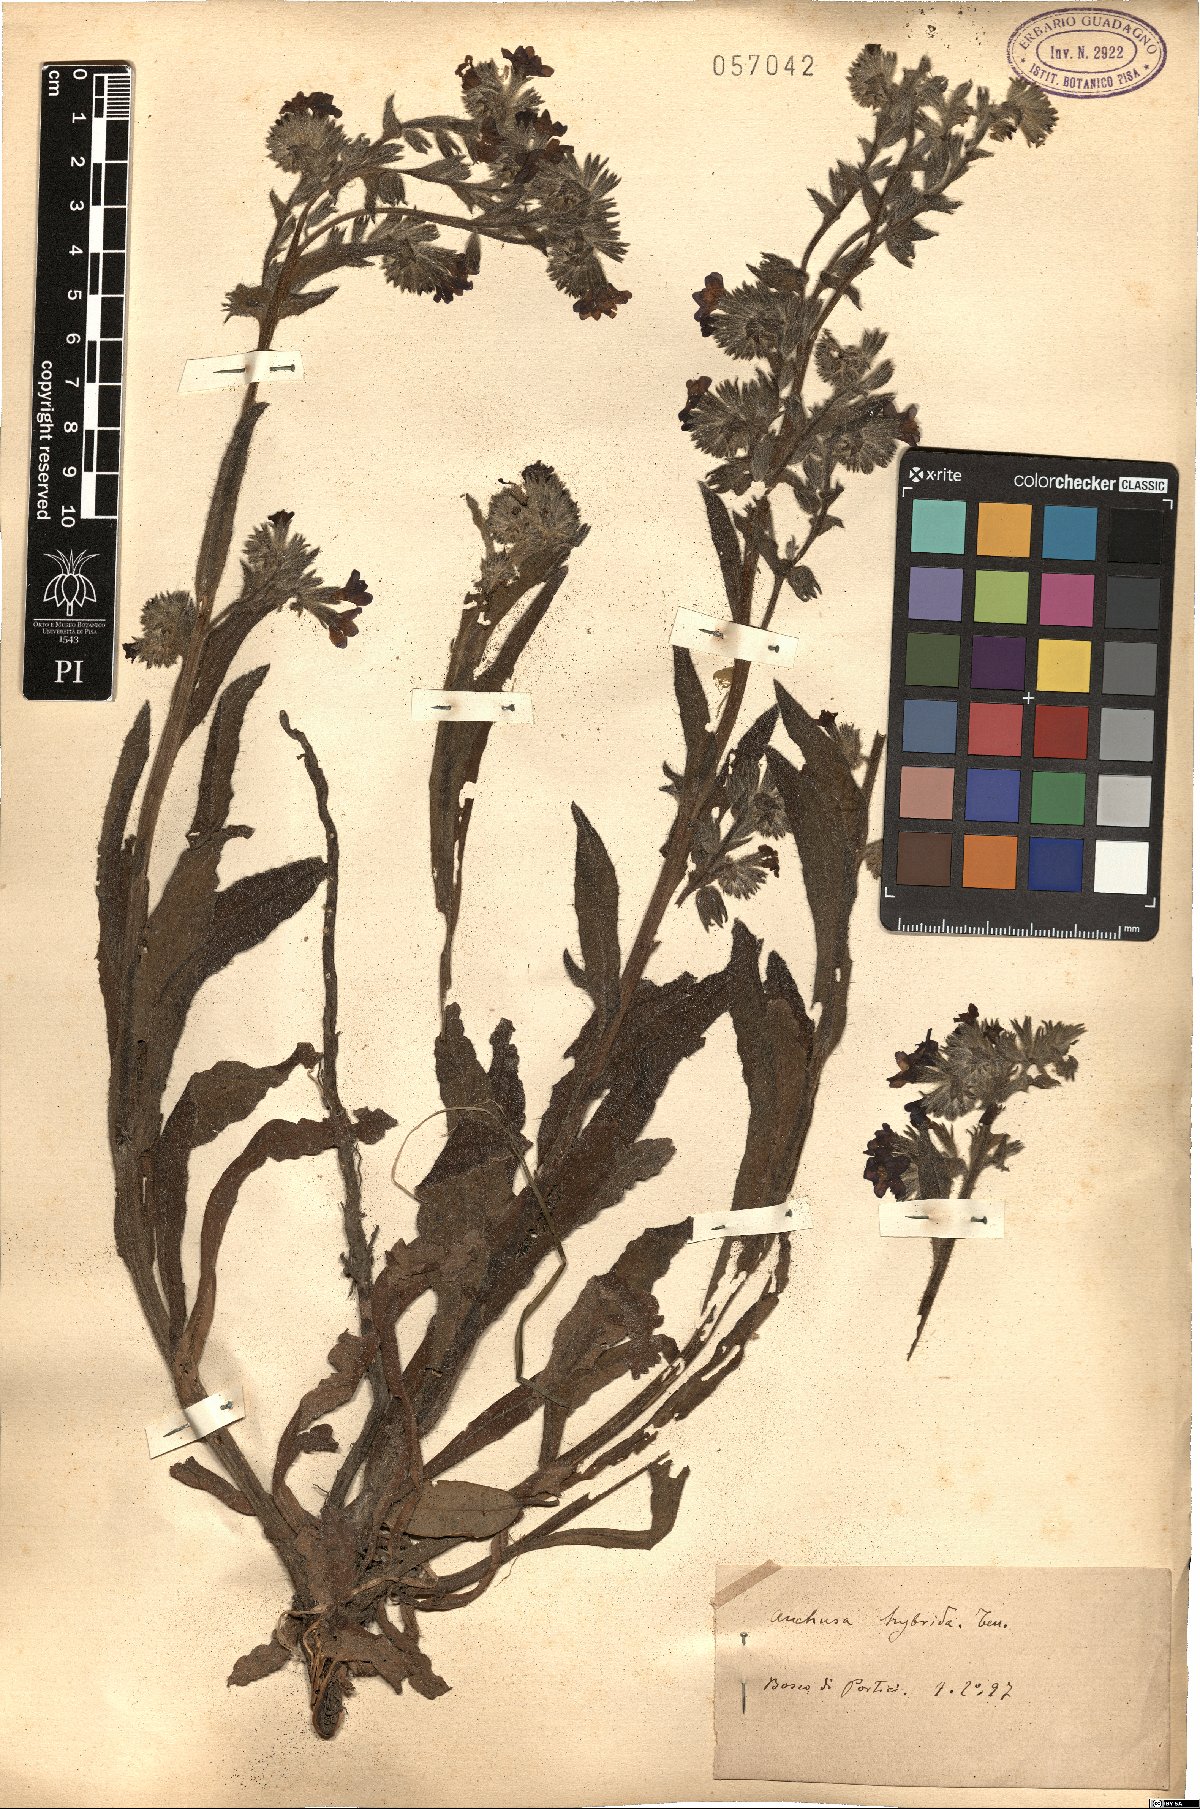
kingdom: Plantae
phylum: Tracheophyta
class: Magnoliopsida
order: Boraginales
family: Boraginaceae
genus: Anchusa
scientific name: Anchusa hybrida
